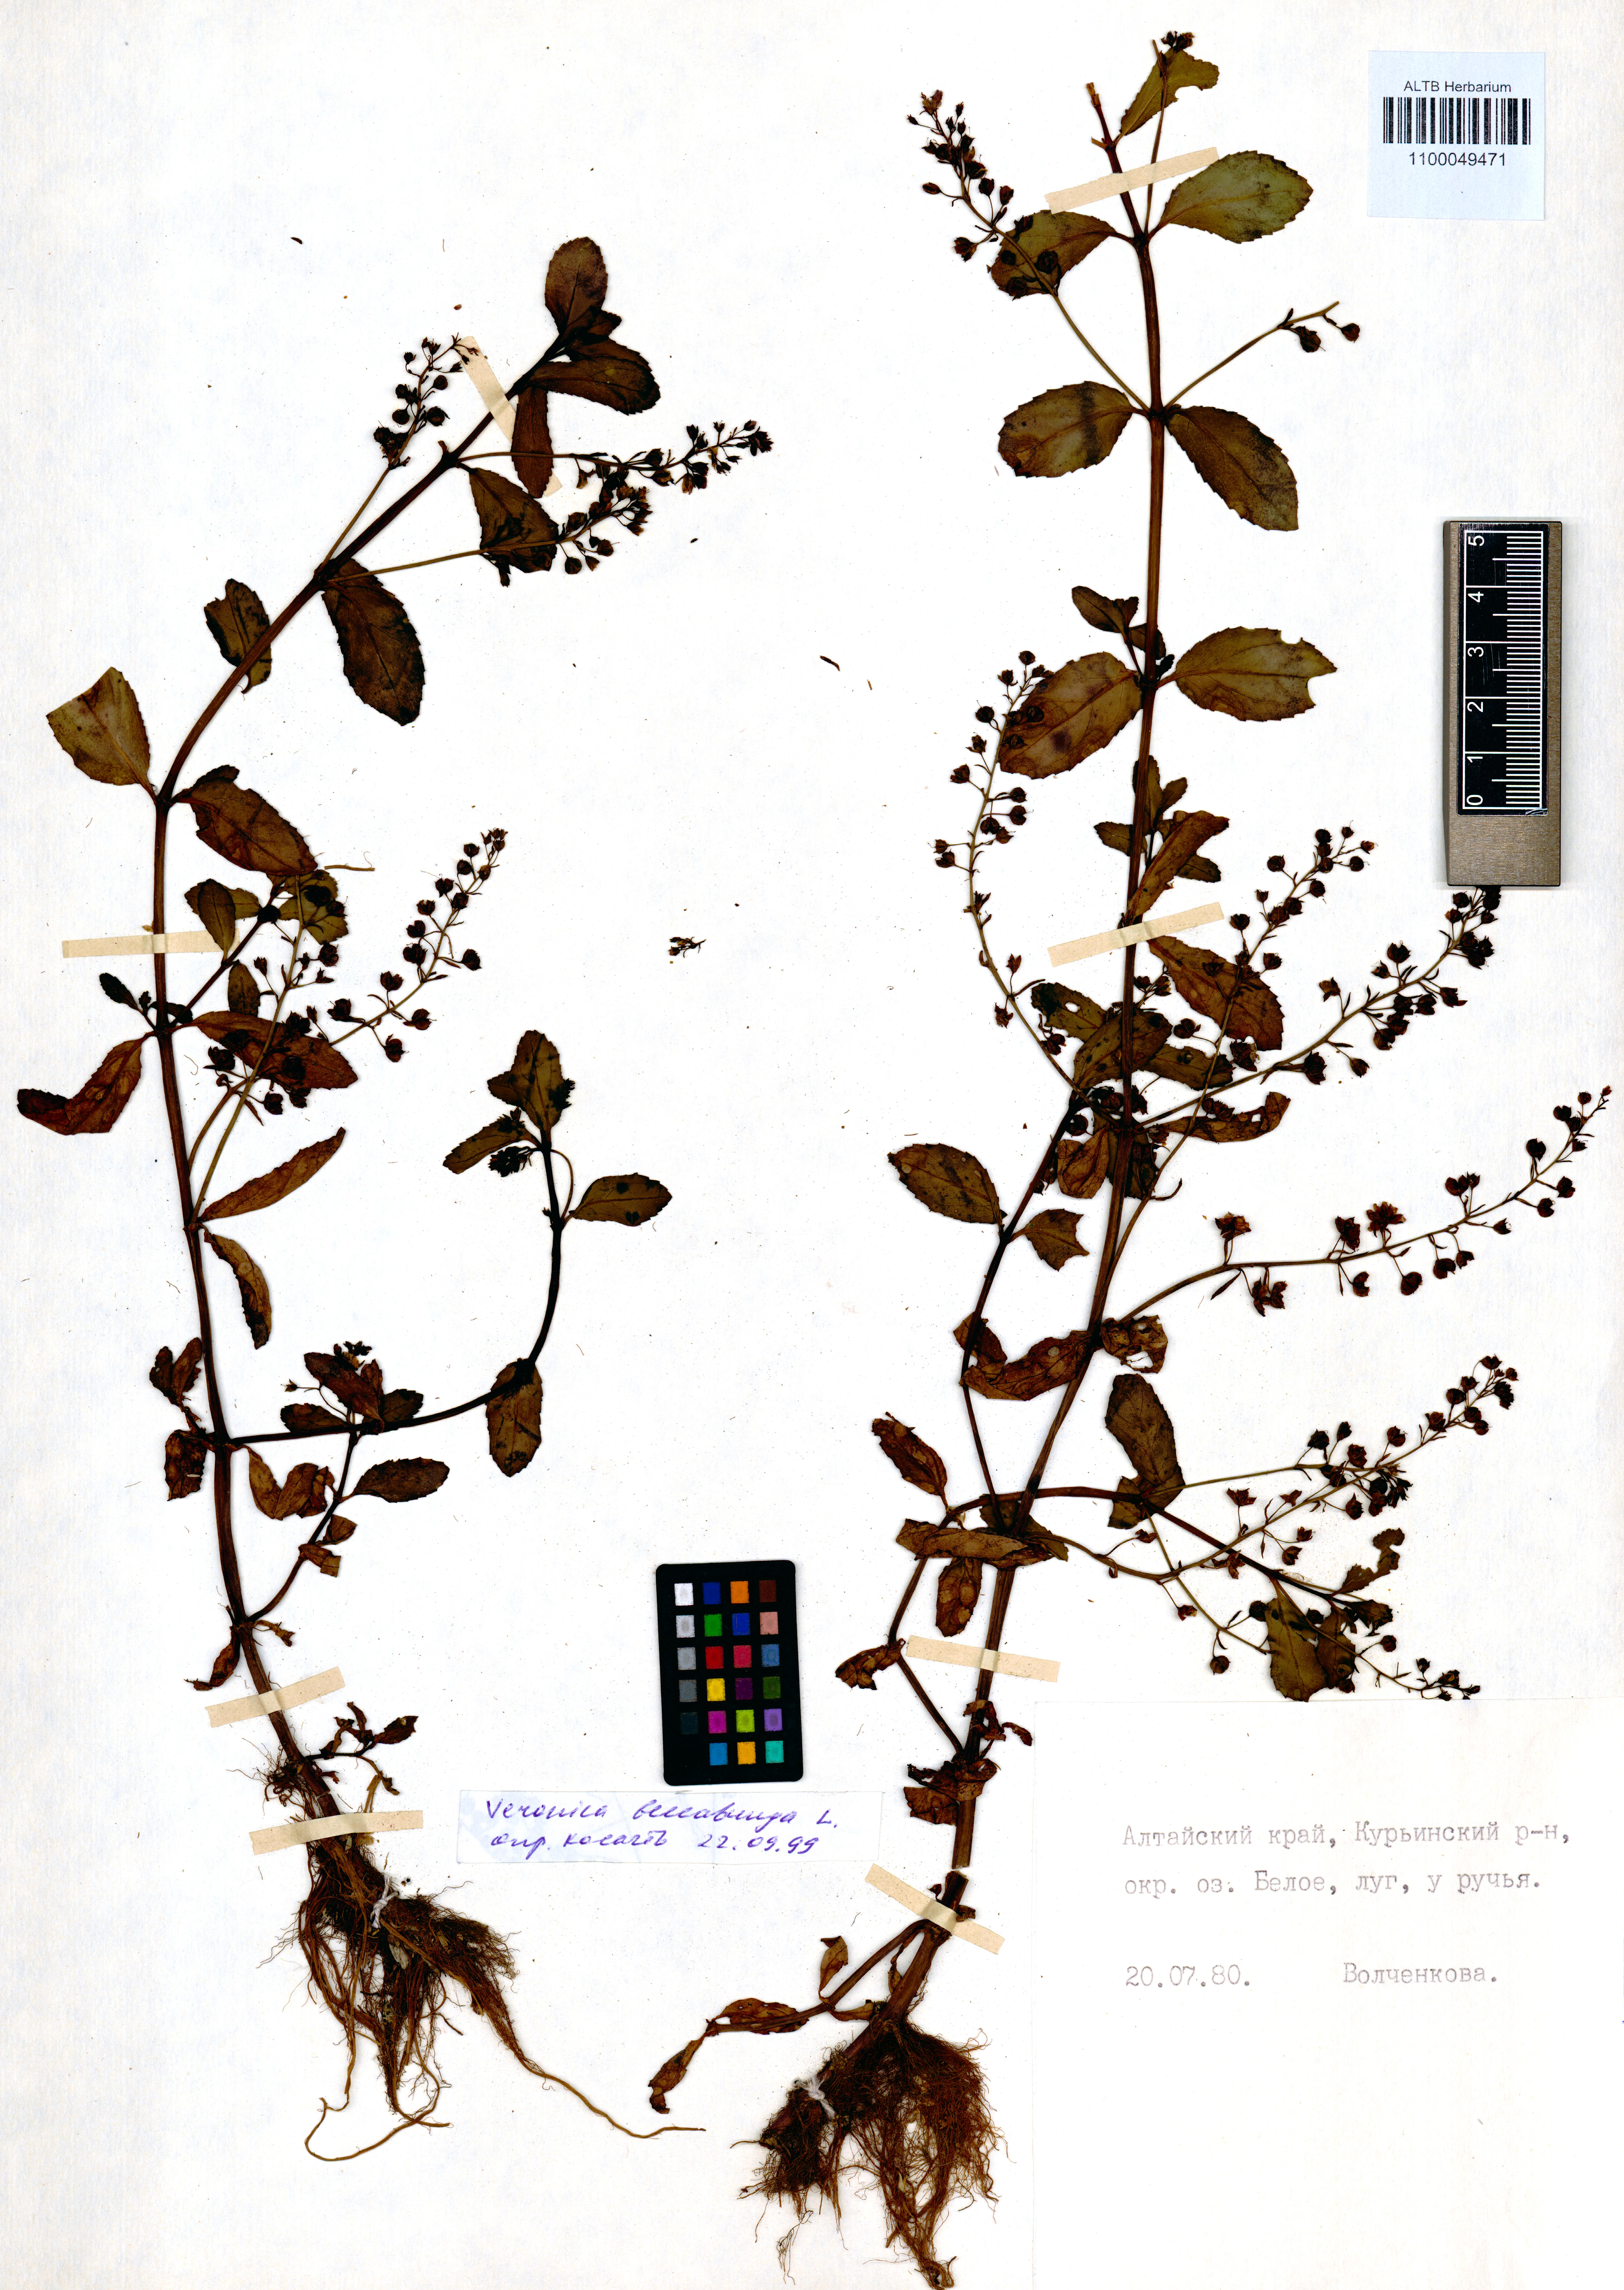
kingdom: Plantae
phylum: Tracheophyta
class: Magnoliopsida
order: Lamiales
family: Plantaginaceae
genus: Veronica
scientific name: Veronica beccabunga
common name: Brooklime
